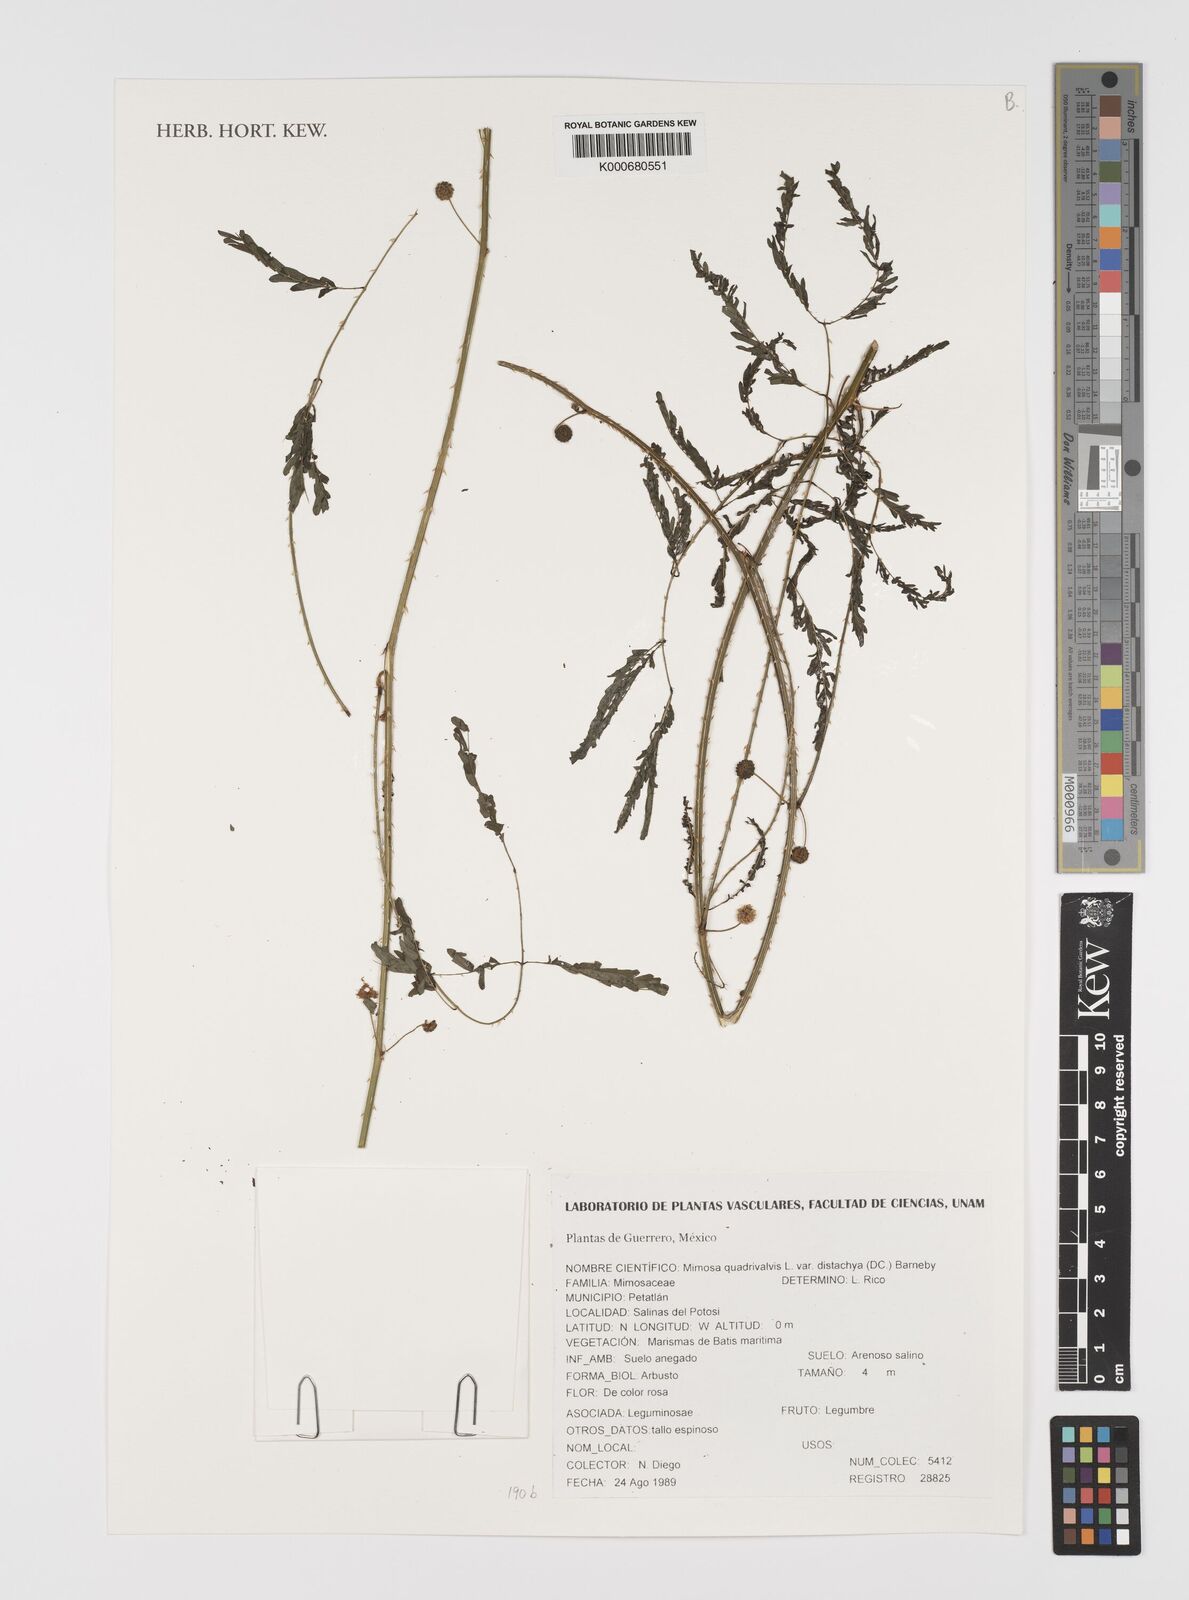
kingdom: Plantae
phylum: Tracheophyta
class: Magnoliopsida
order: Fabales
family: Fabaceae
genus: Mimosa
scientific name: Mimosa robusta
